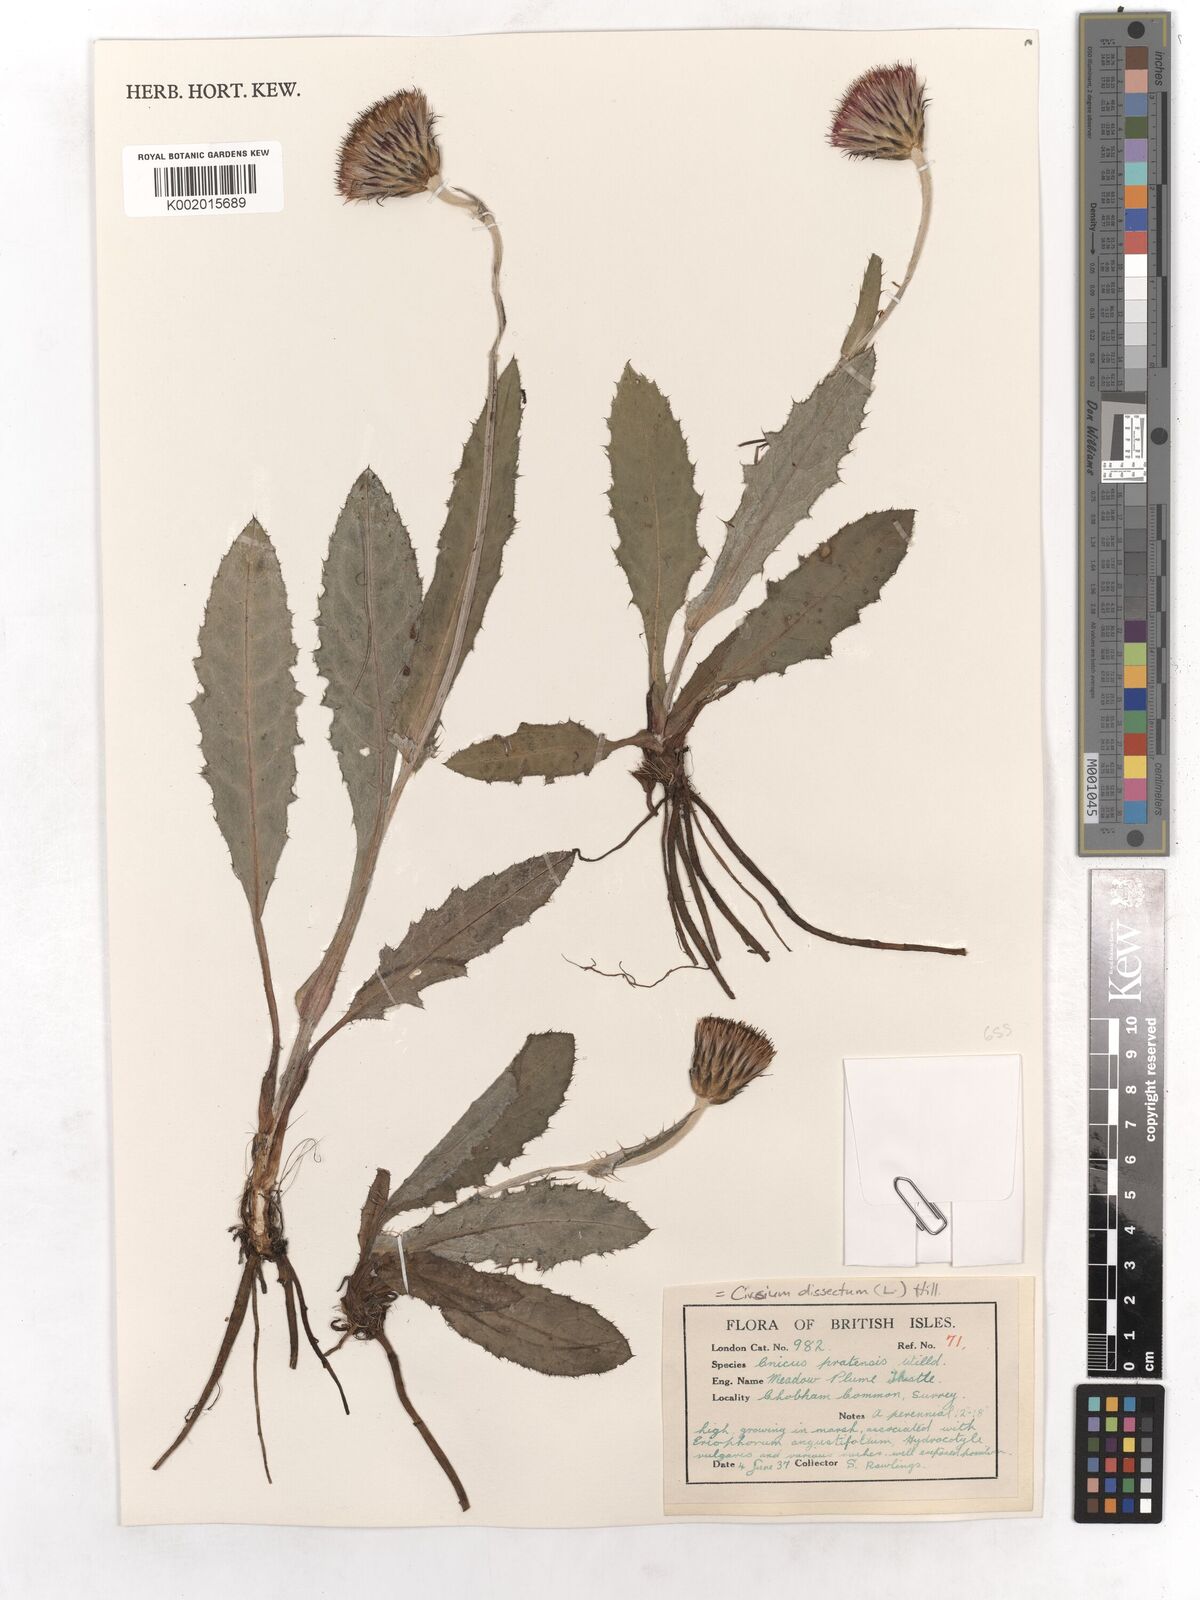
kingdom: Plantae
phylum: Tracheophyta
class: Magnoliopsida
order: Asterales
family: Asteraceae
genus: Cirsium
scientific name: Cirsium dissectum
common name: Meadow thistle
